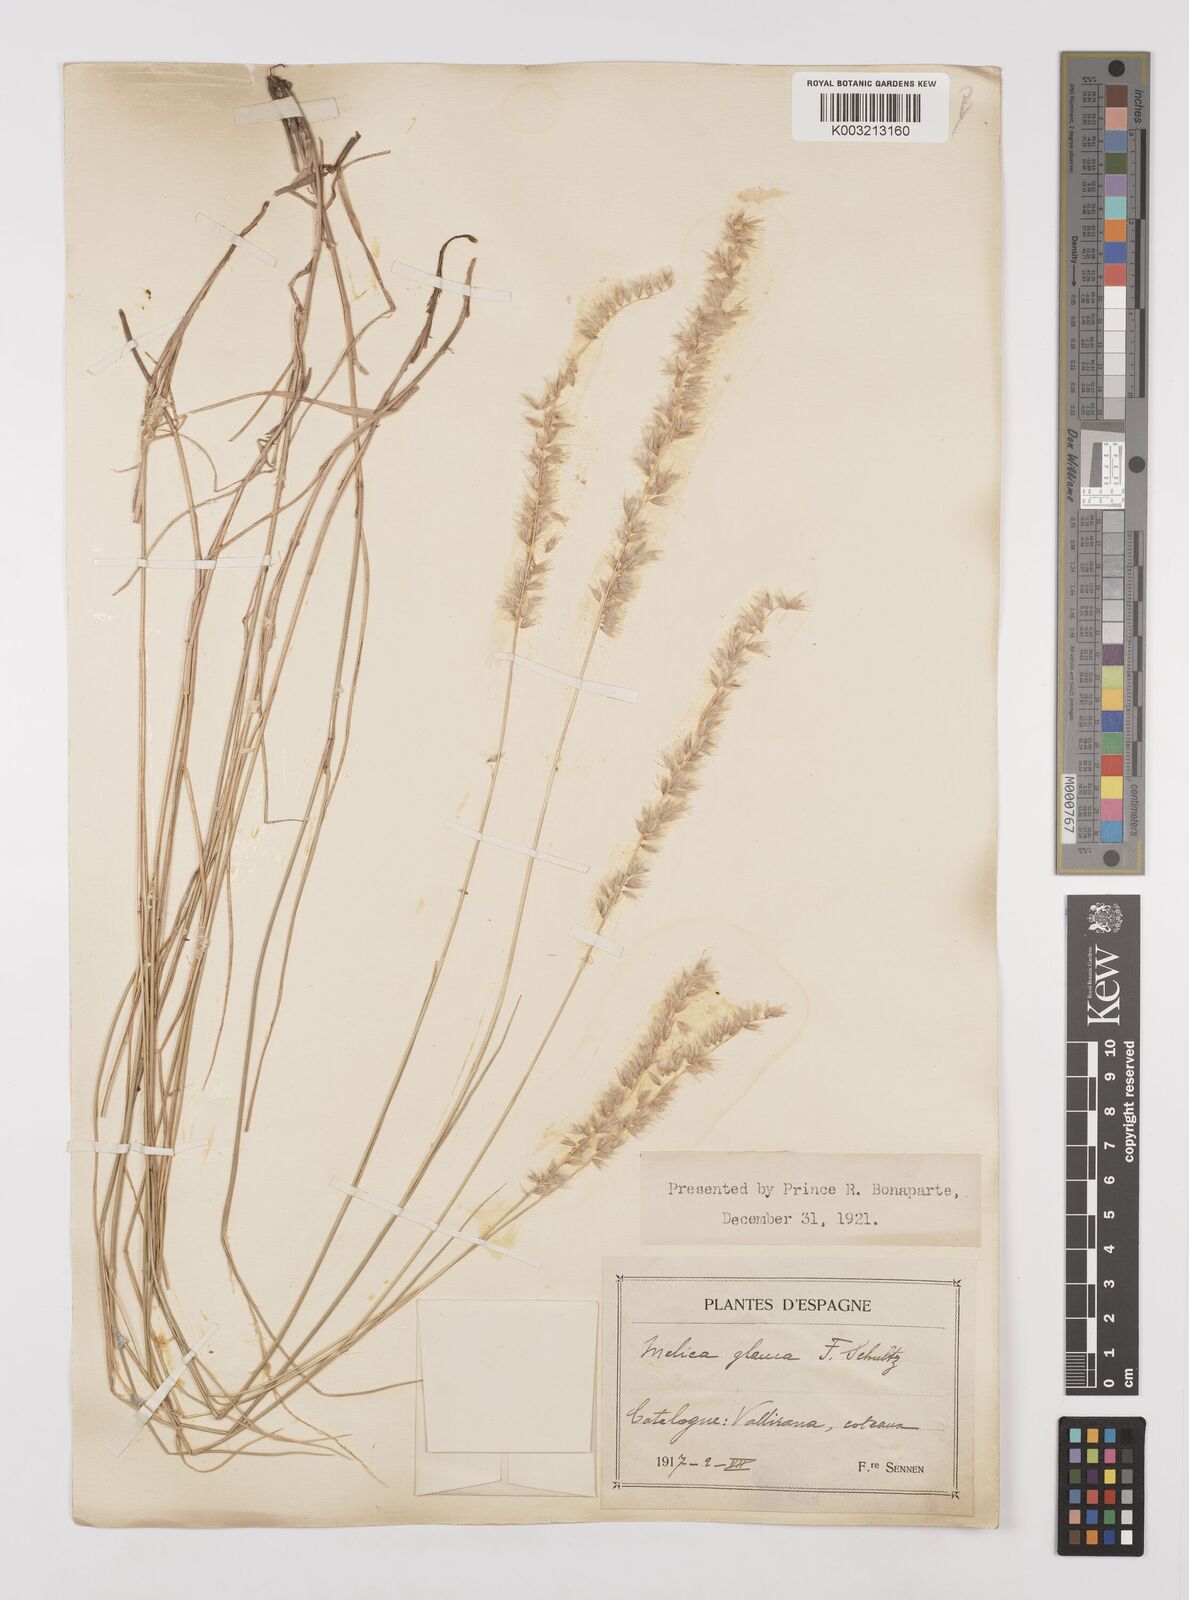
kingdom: Plantae
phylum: Tracheophyta
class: Liliopsida
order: Poales
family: Poaceae
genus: Melica
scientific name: Melica ciliata
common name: Hairy melicgrass
